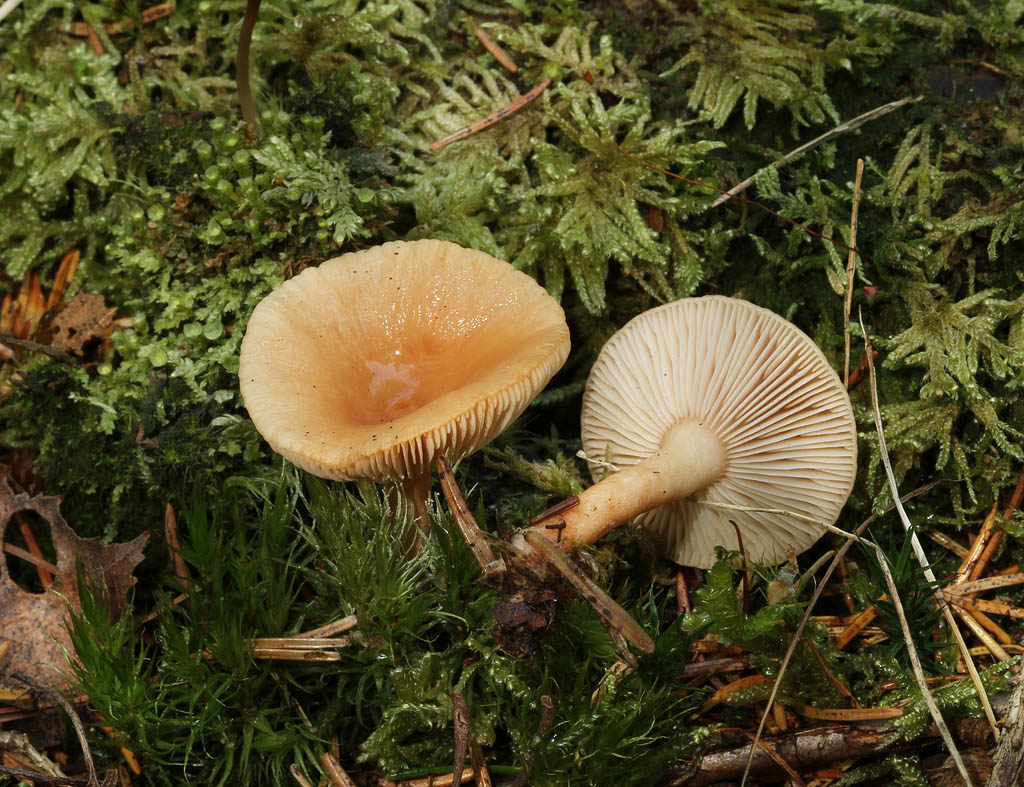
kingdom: Fungi
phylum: Basidiomycota
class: Agaricomycetes
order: Russulales
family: Russulaceae
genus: Lactarius
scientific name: Lactarius tabidus
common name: rynket mælkehat
